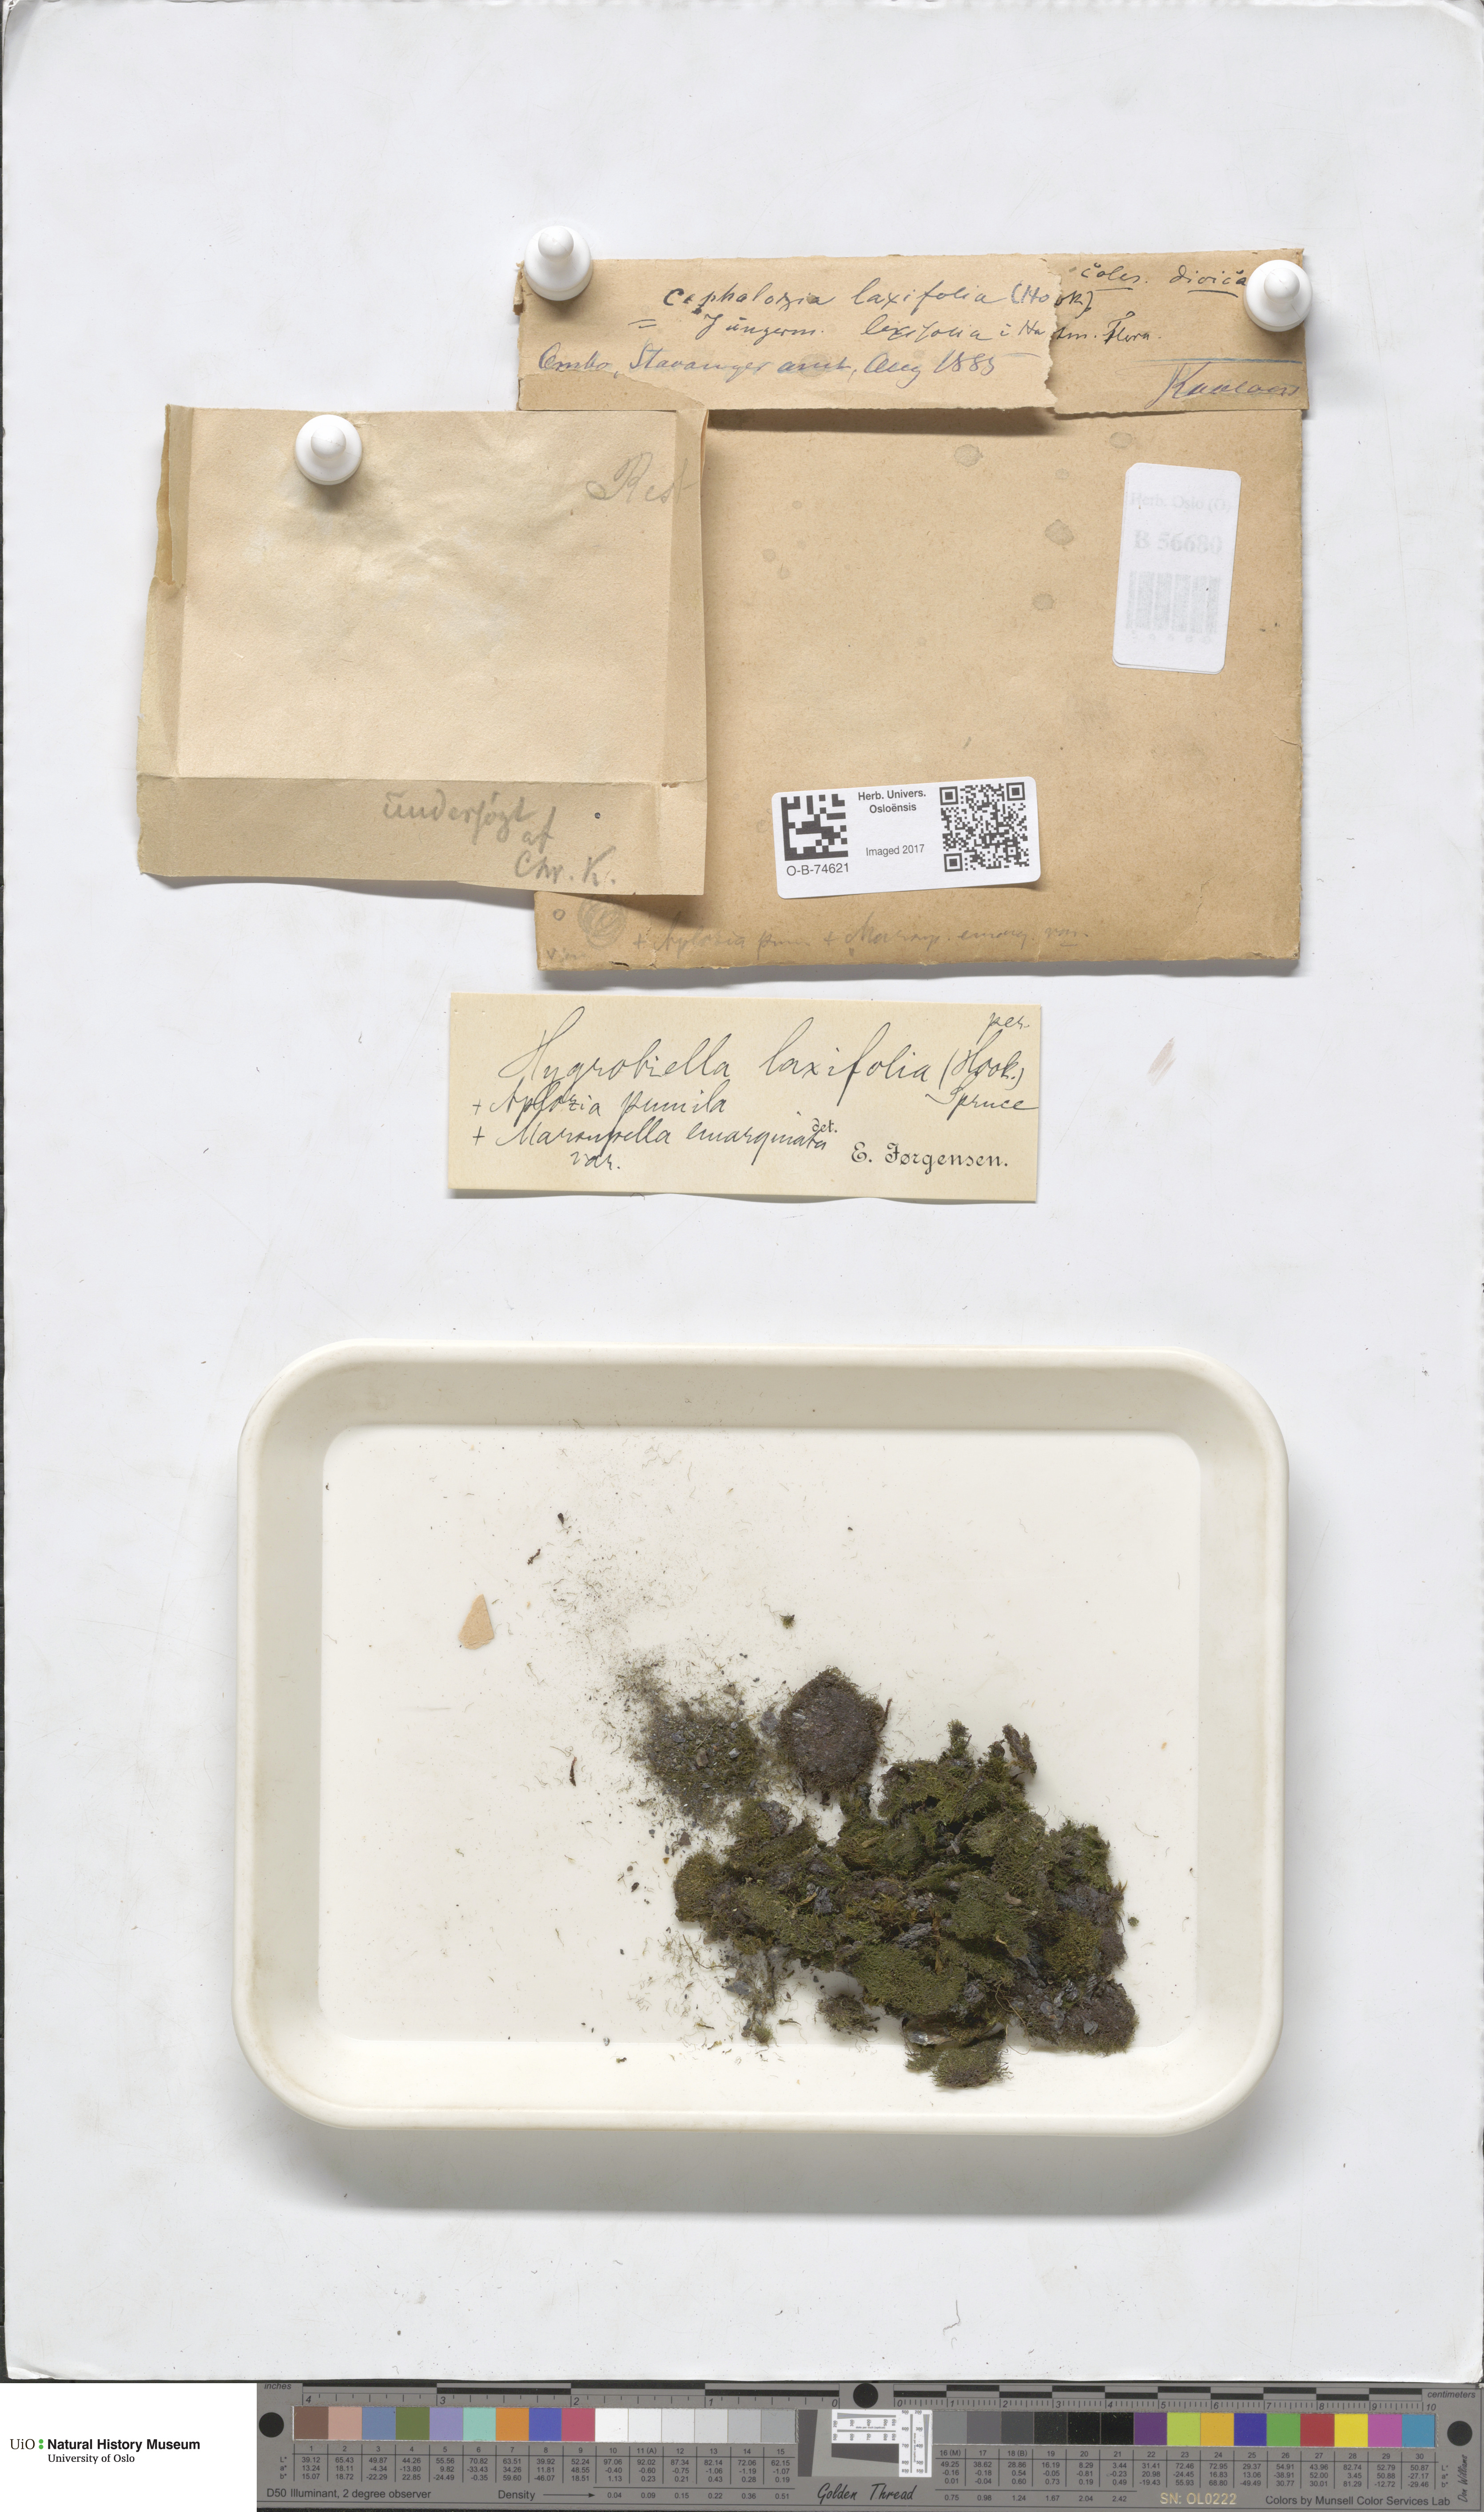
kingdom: Plantae
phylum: Marchantiophyta
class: Jungermanniopsida
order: Jungermanniales
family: Hygrobiellaceae
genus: Hygrobiella
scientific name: Hygrobiella laxifolia
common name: Lax notchwort
